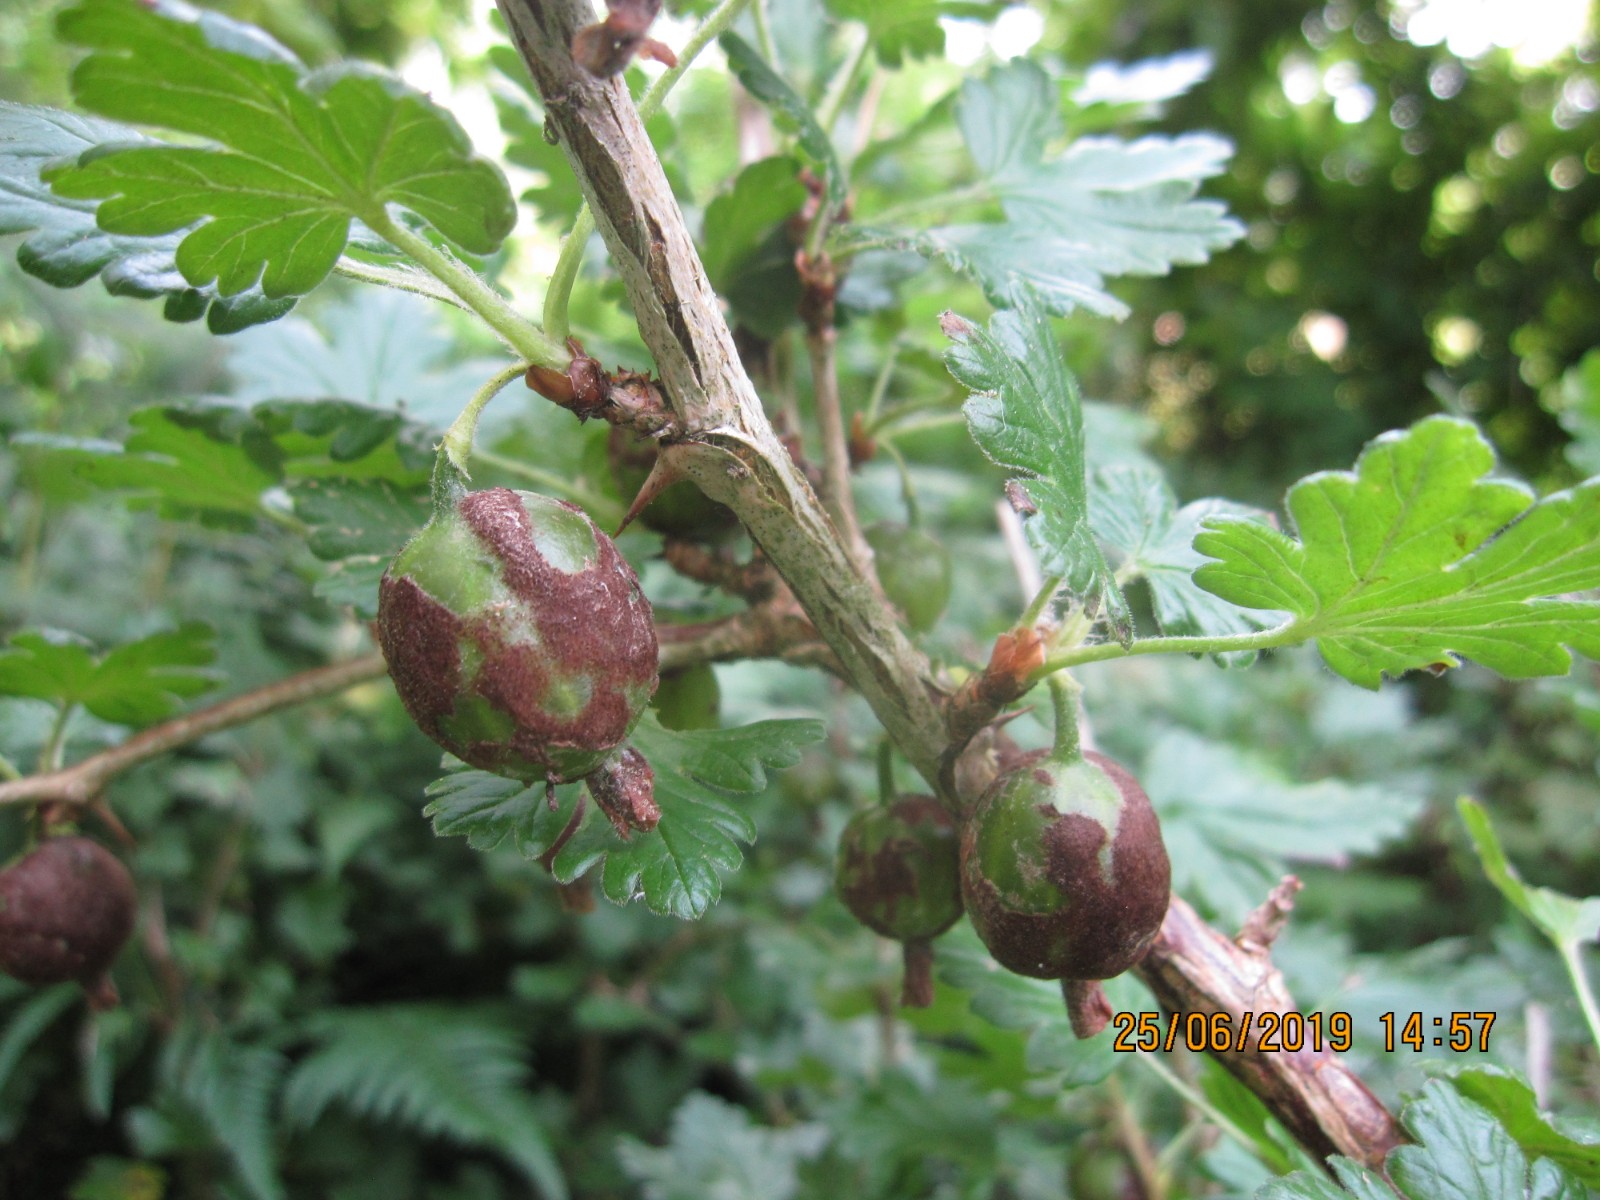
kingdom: Fungi
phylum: Ascomycota
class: Leotiomycetes
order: Helotiales
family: Erysiphaceae
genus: Podosphaera
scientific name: Podosphaera mors-uvae
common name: American gooseberry mildew
